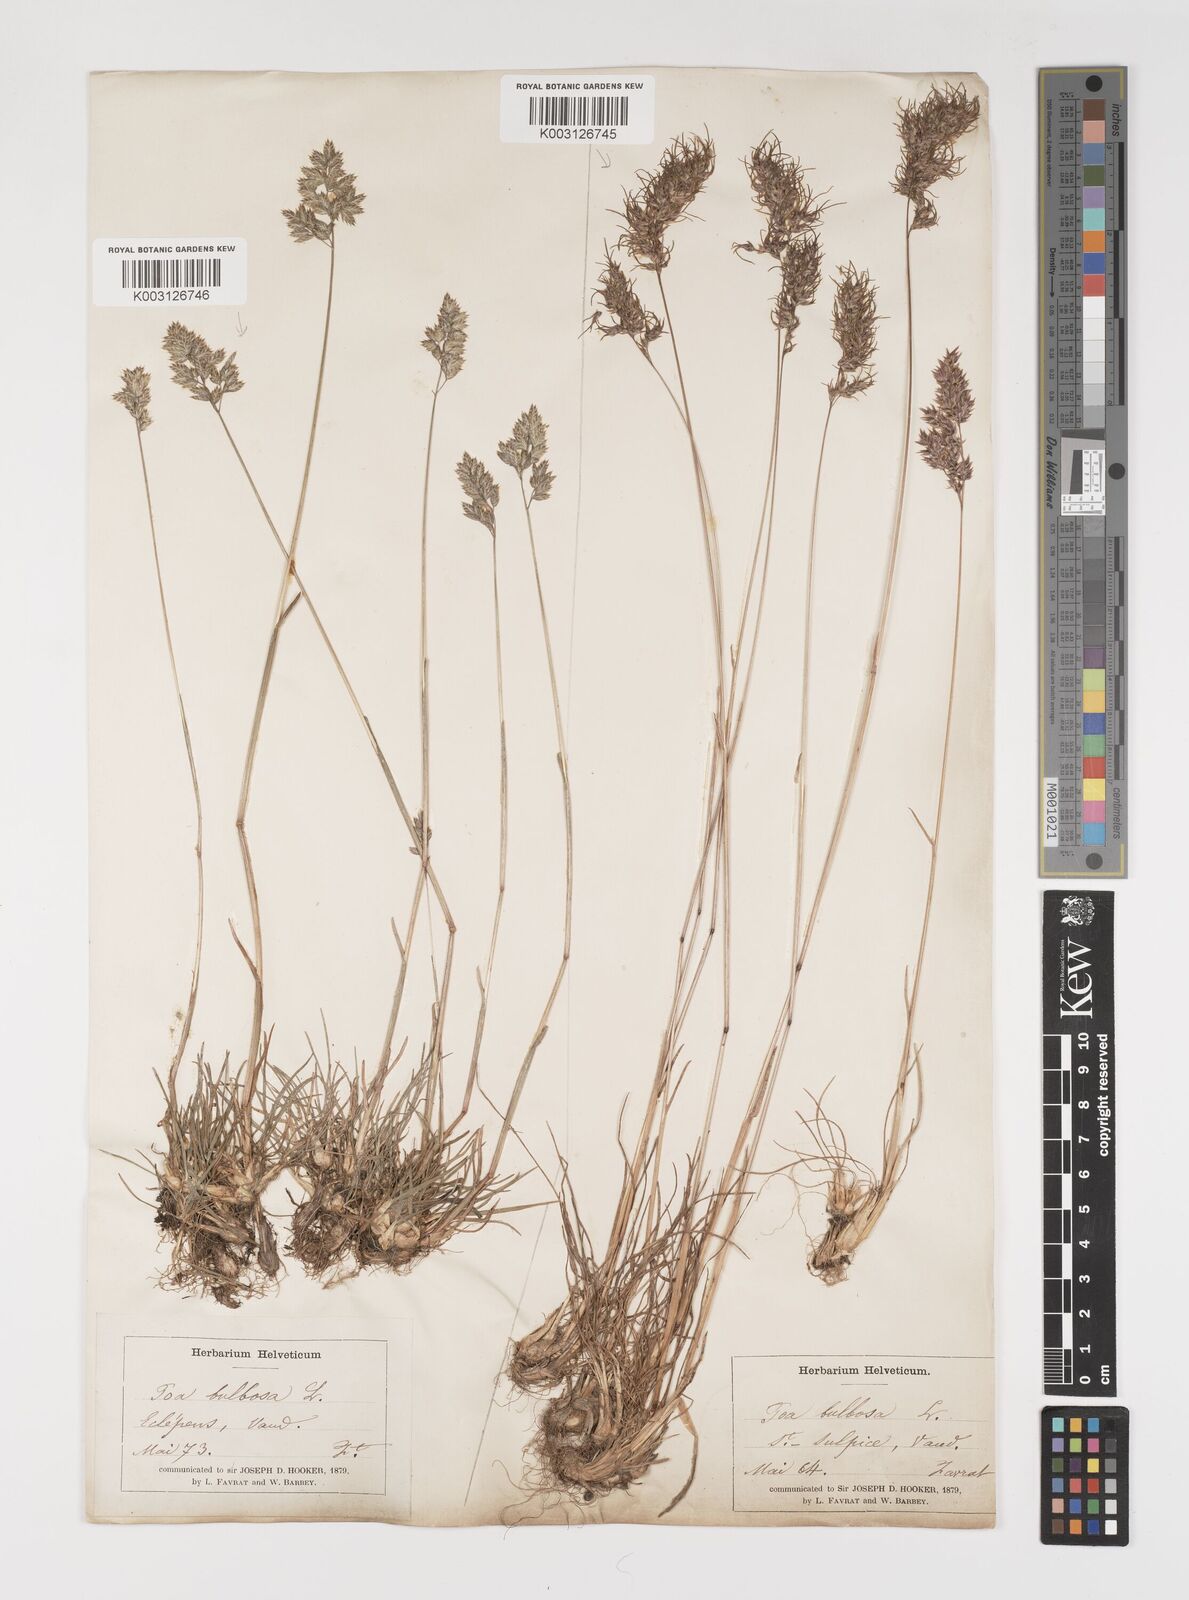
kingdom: Plantae
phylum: Tracheophyta
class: Liliopsida
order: Poales
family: Poaceae
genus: Poa
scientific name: Poa bulbosa
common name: Bulbous bluegrass
